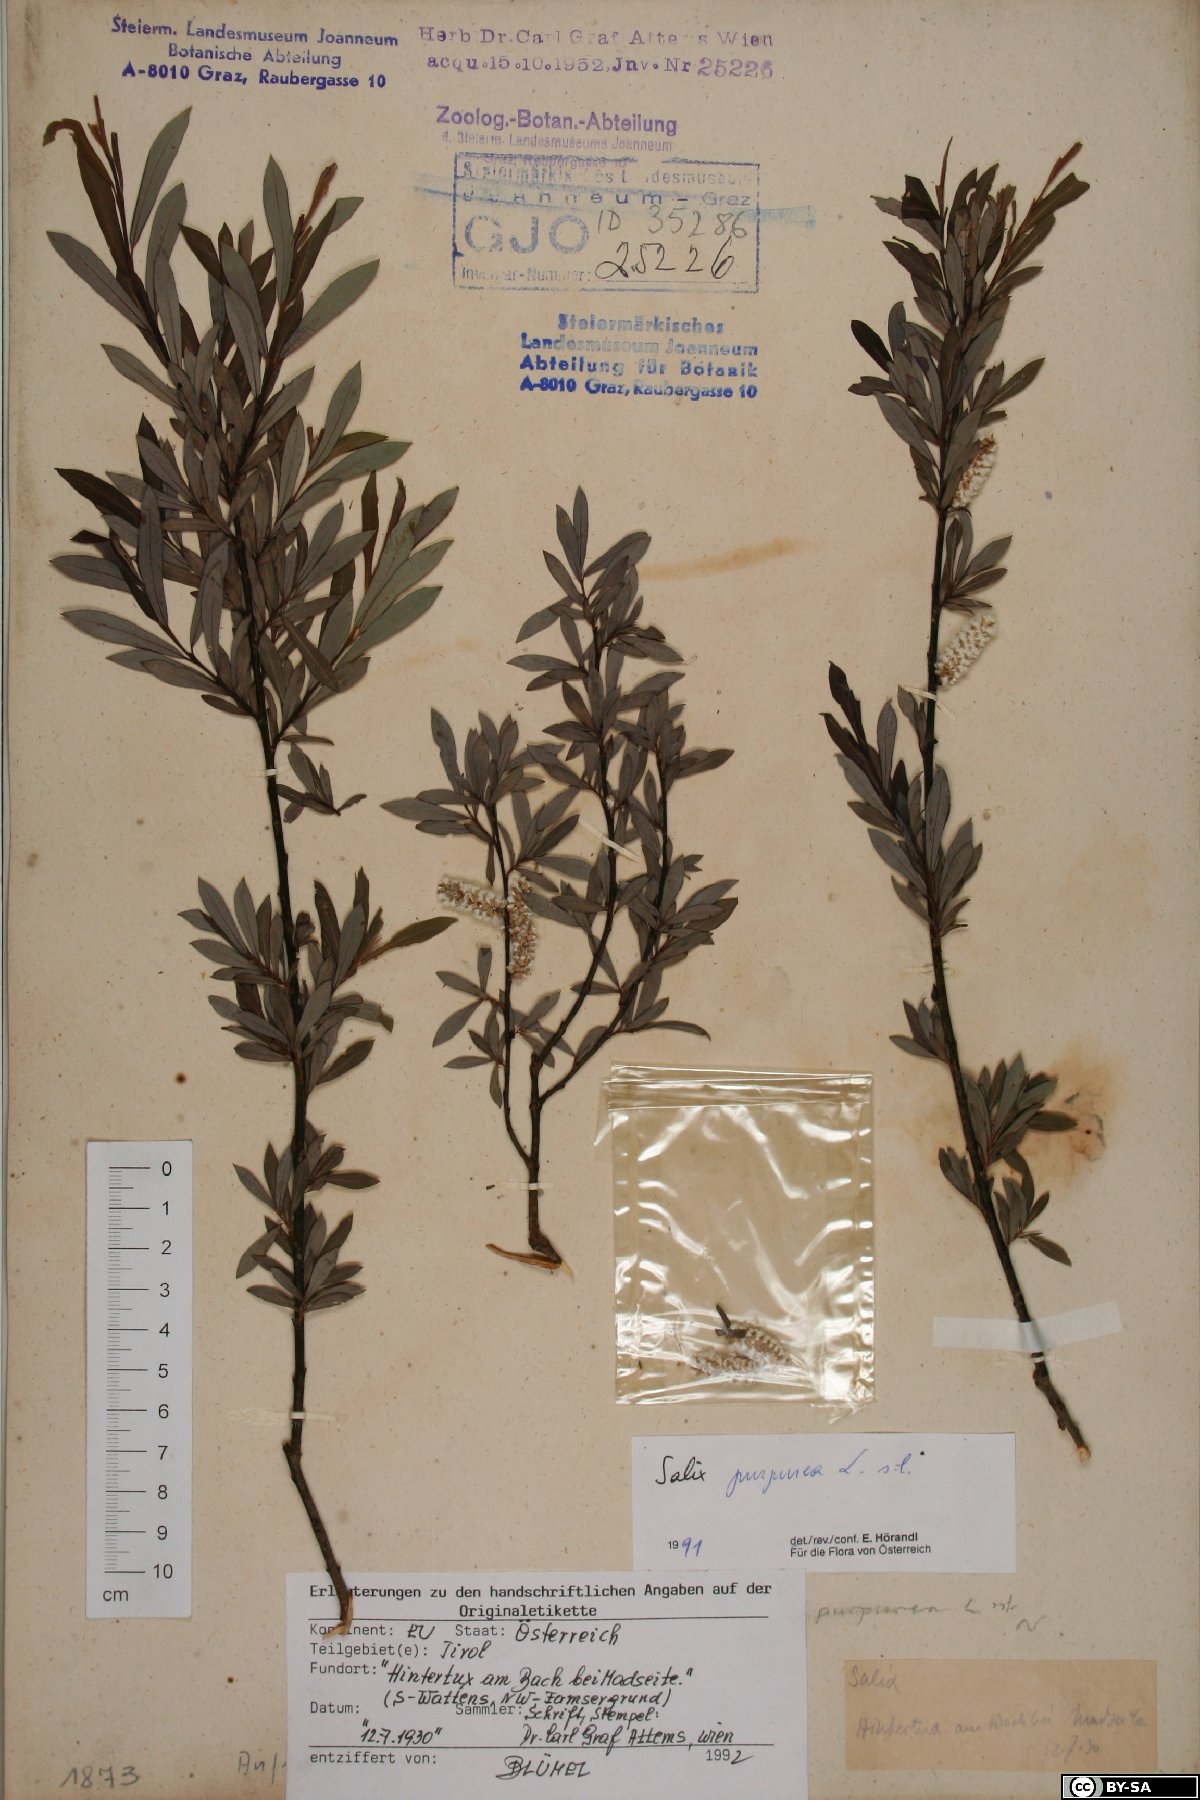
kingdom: Plantae
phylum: Tracheophyta
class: Magnoliopsida
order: Malpighiales
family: Salicaceae
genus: Salix
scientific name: Salix purpurea
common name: Purple willow
